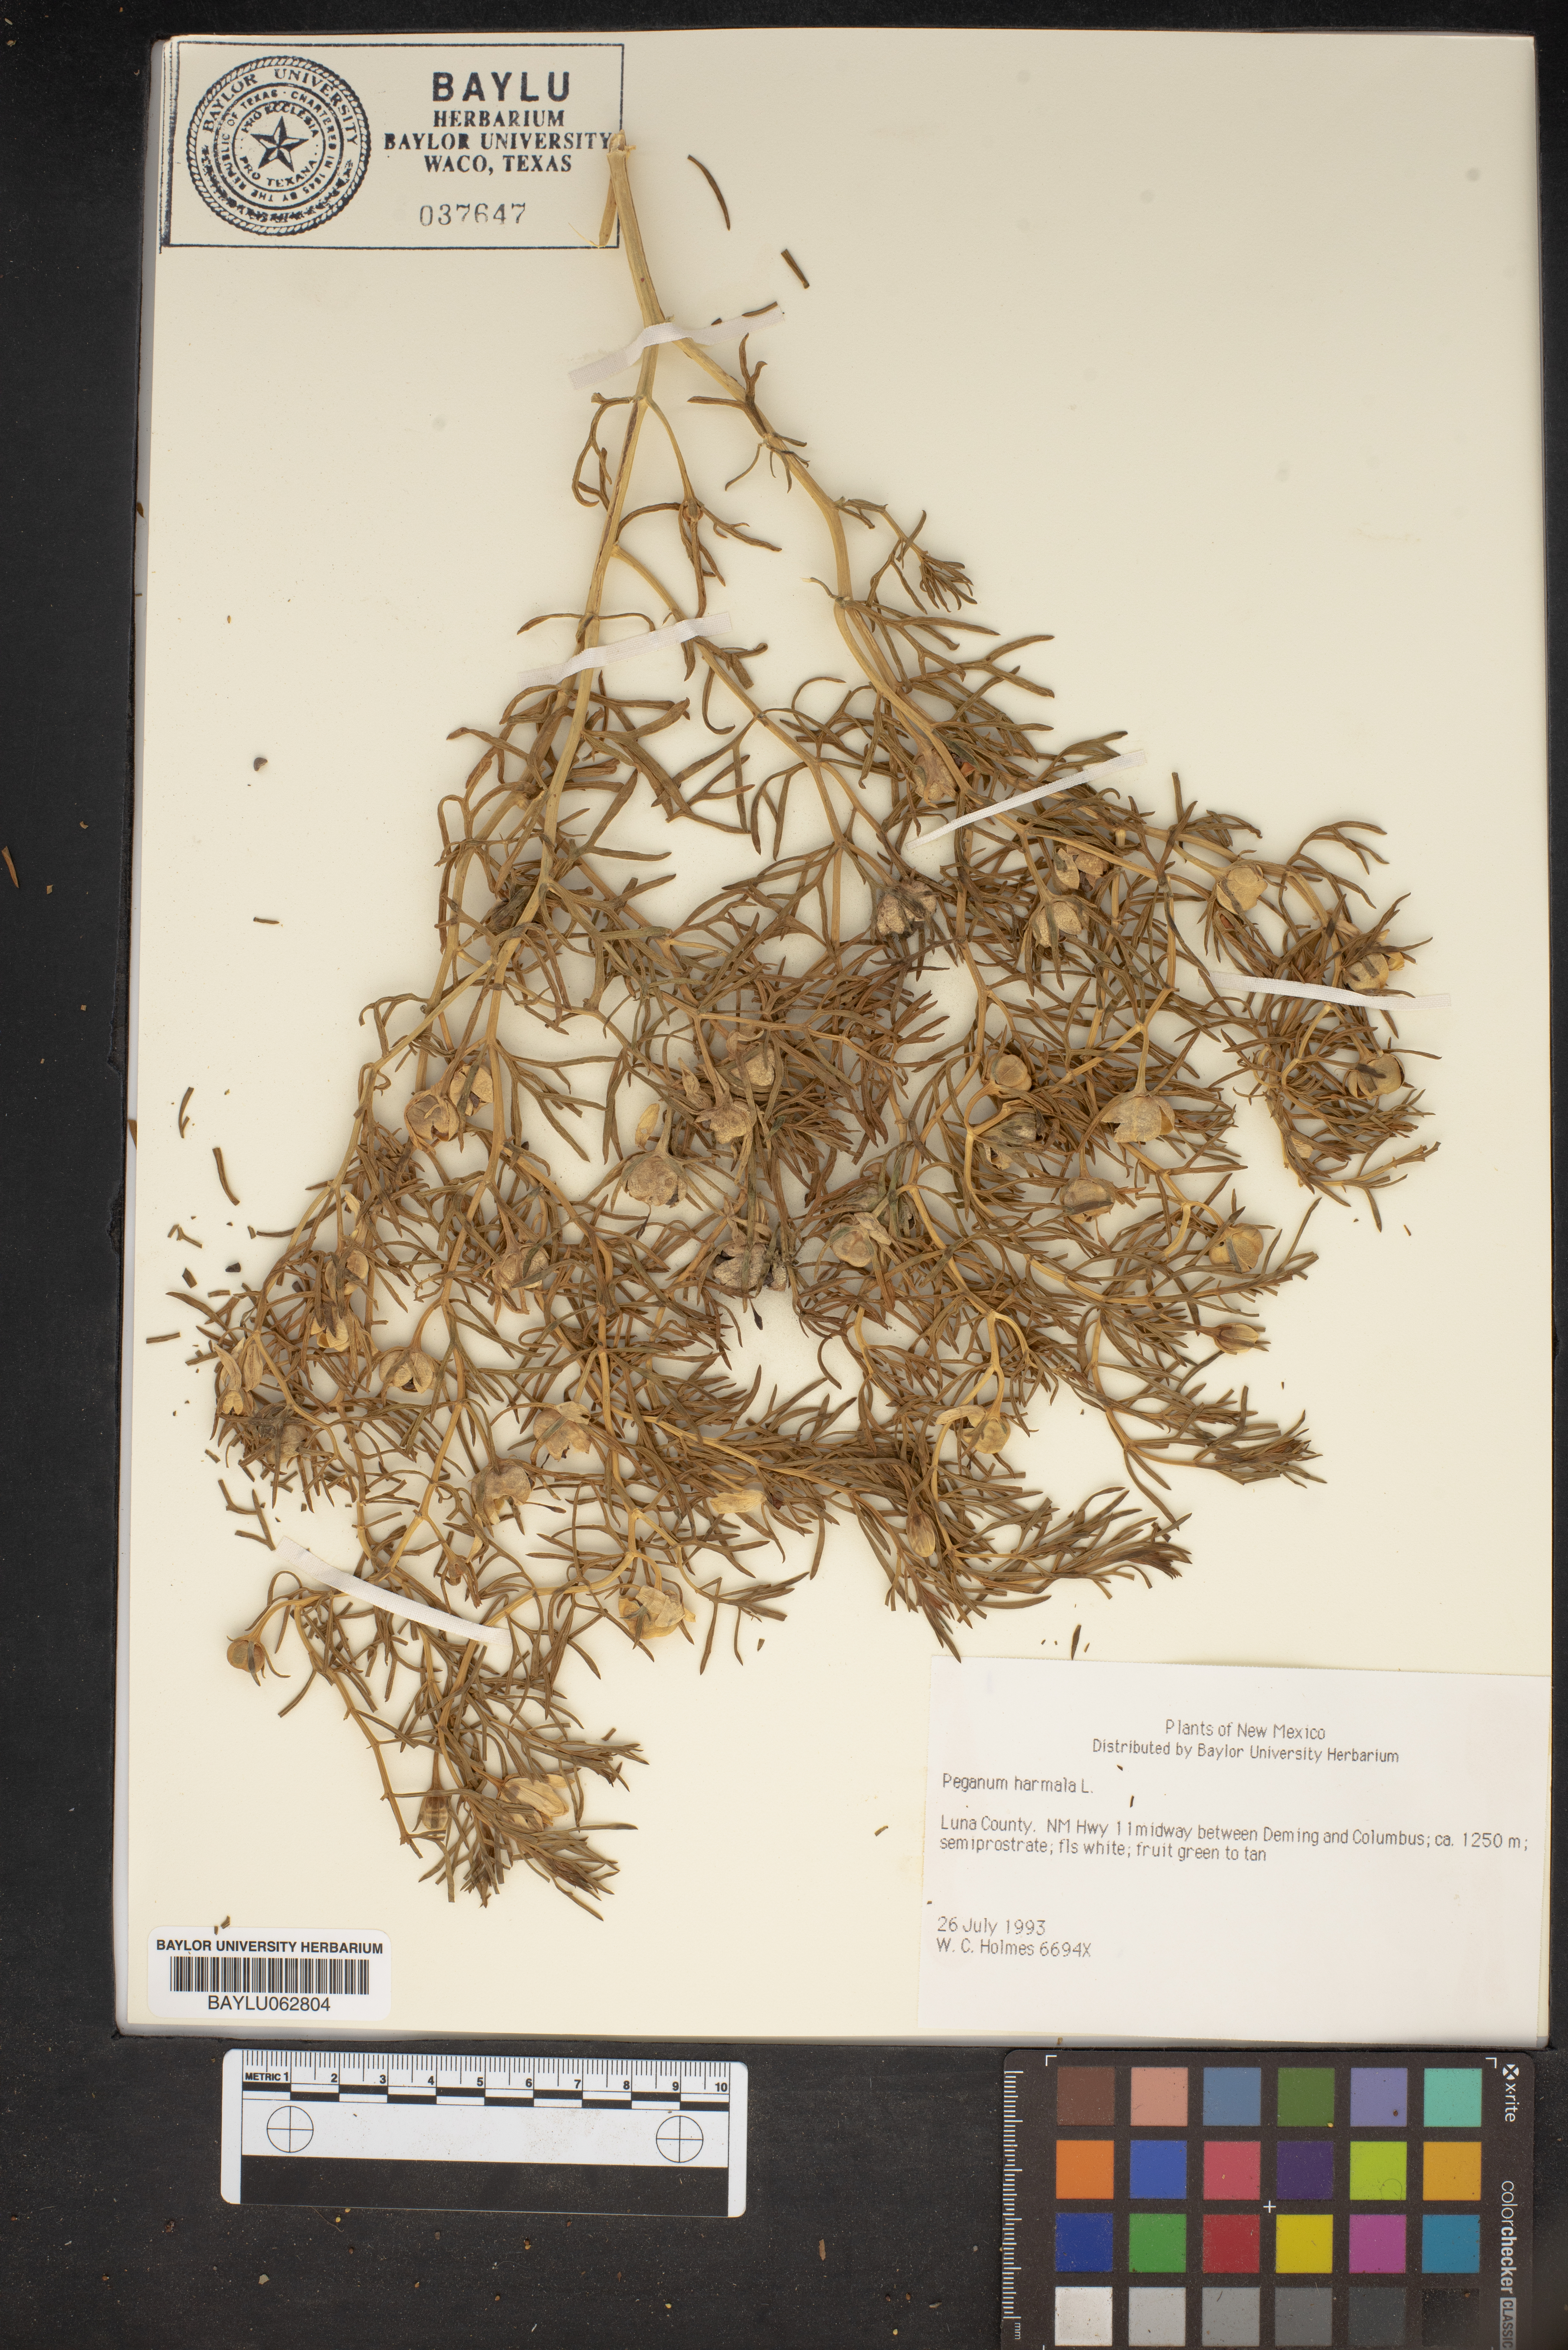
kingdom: Plantae
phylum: Tracheophyta
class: Magnoliopsida
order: Sapindales
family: Tetradiclidaceae
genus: Peganum
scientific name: Peganum harmala
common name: Harmal peganum
